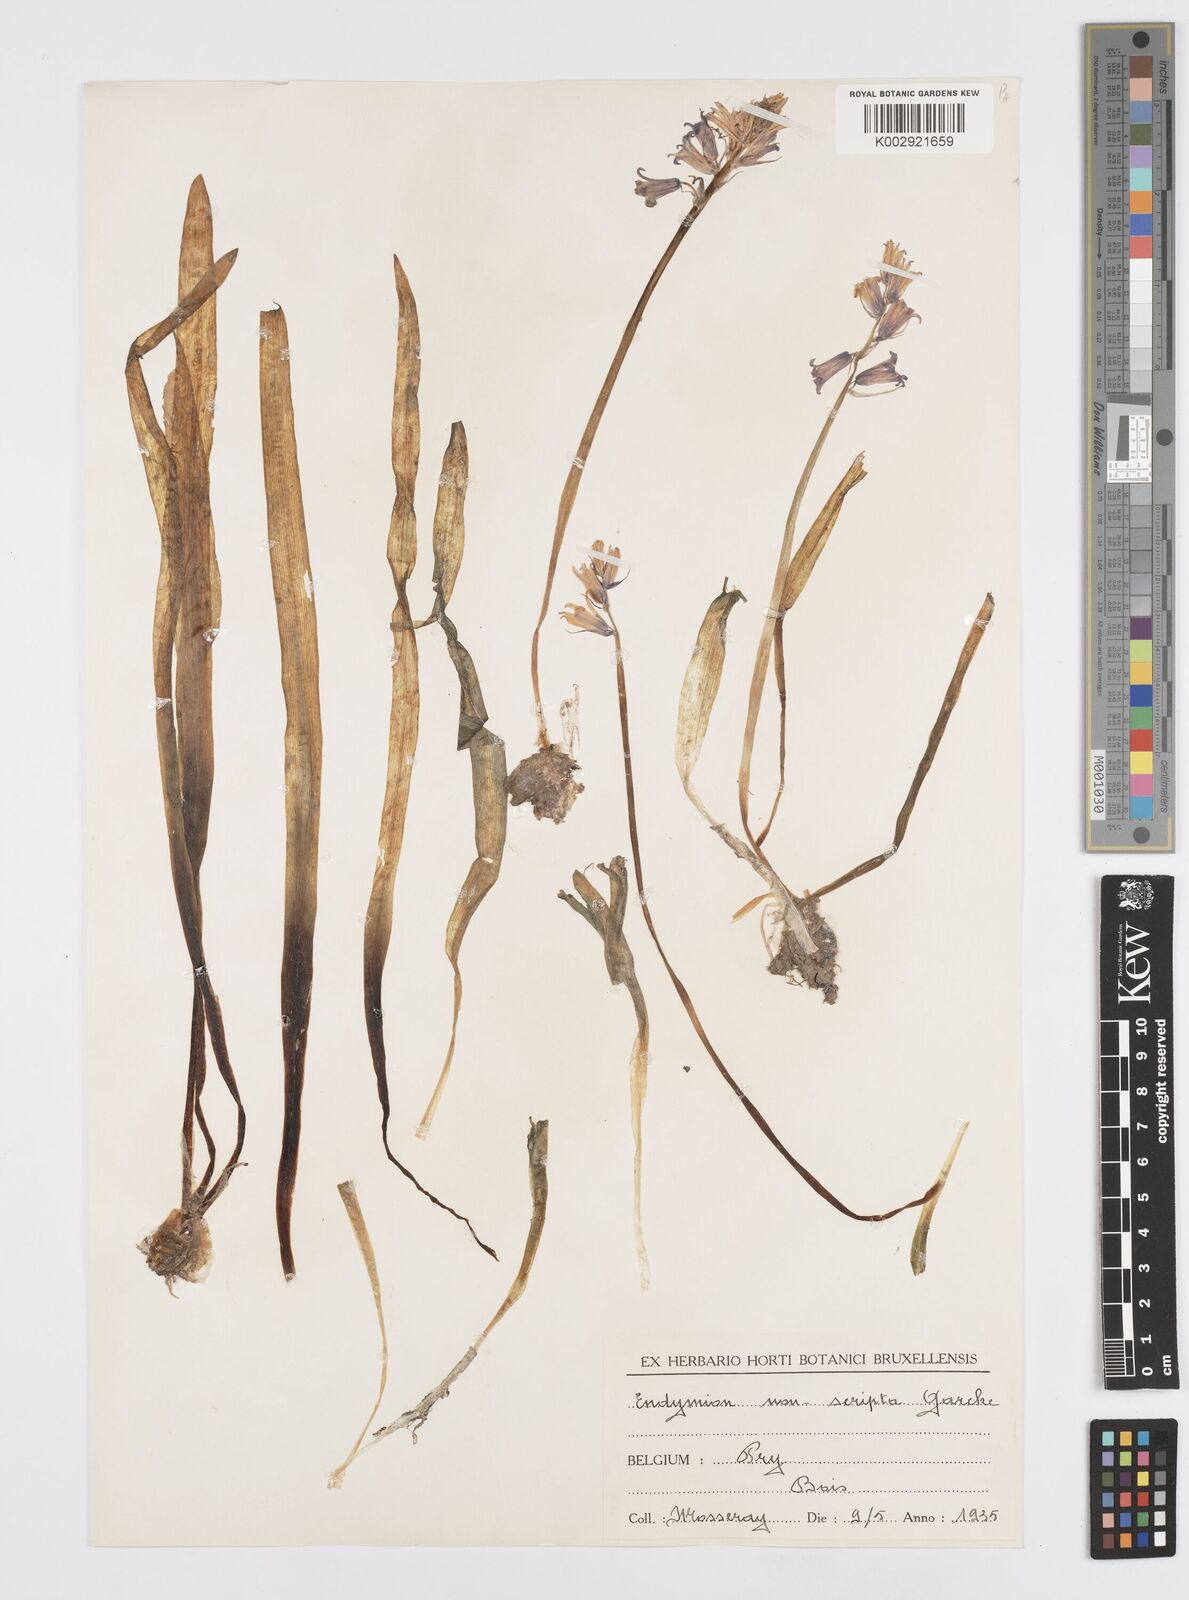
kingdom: Plantae
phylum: Tracheophyta
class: Liliopsida
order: Asparagales
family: Asparagaceae
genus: Hyacinthoides
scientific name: Hyacinthoides non-scripta
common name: Bluebell
